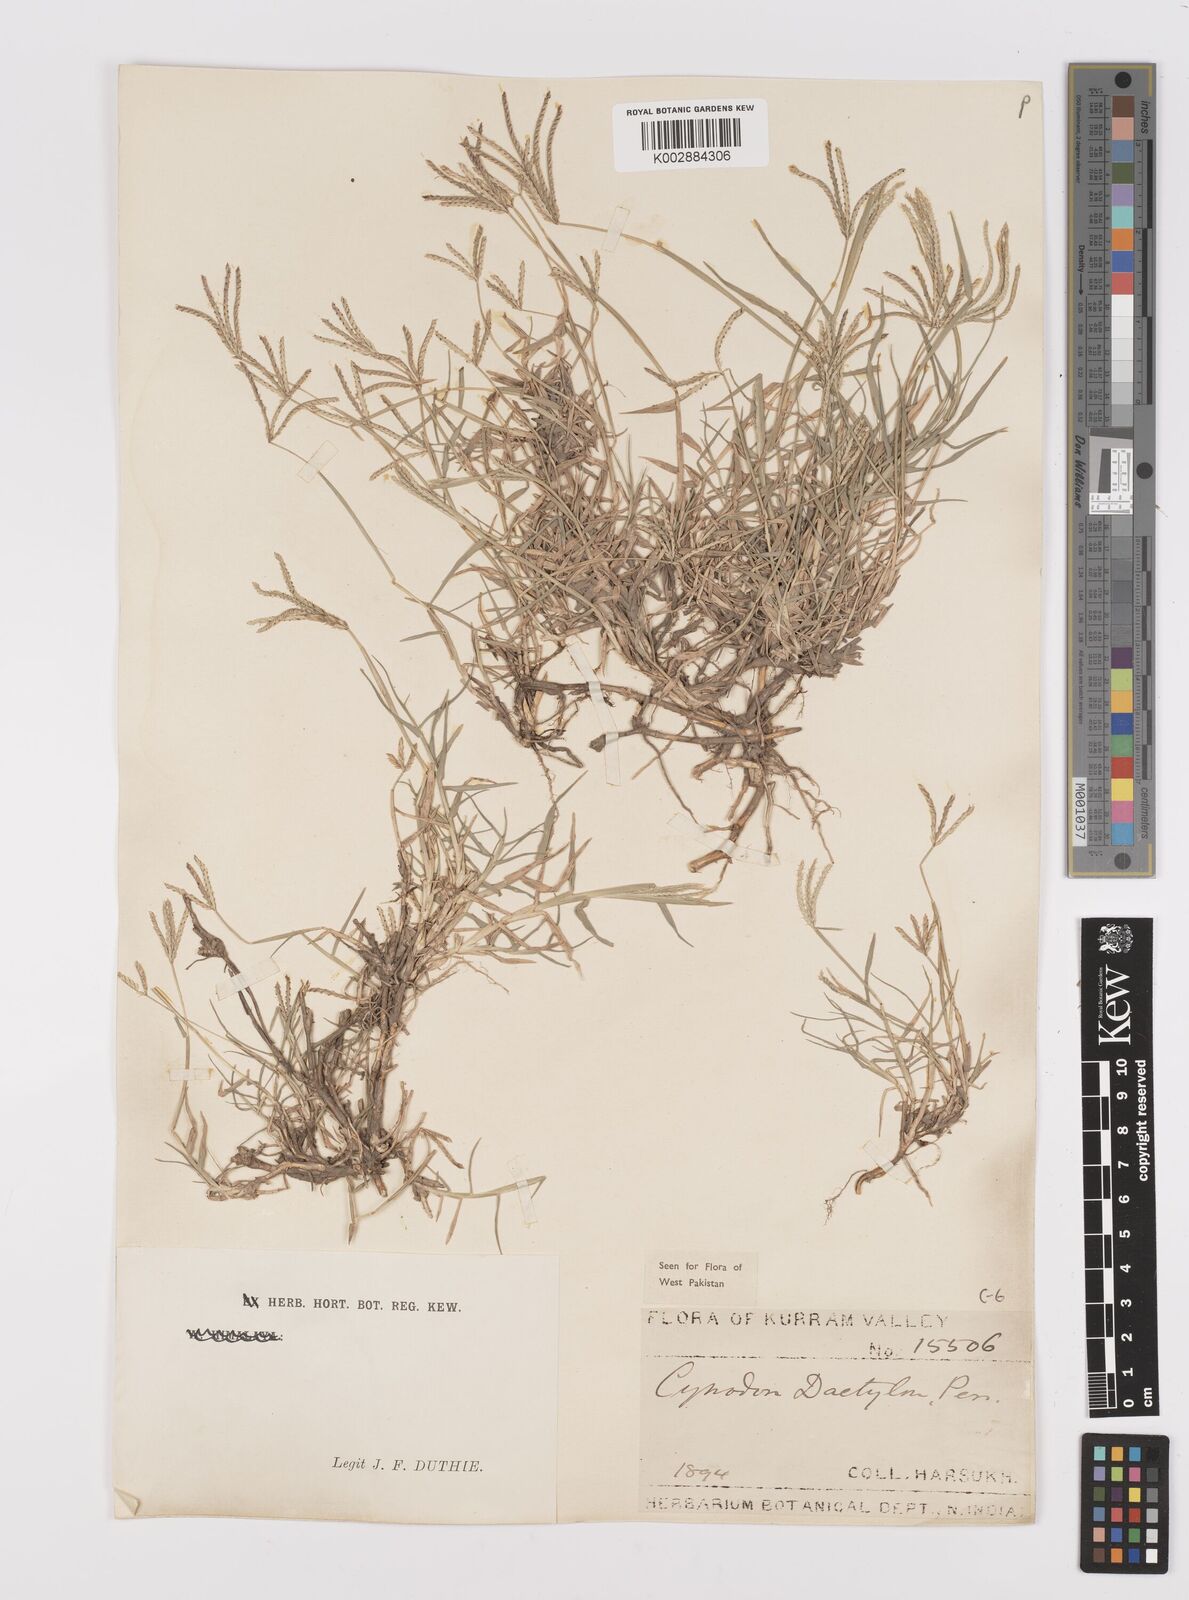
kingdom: Plantae
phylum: Tracheophyta
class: Liliopsida
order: Poales
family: Poaceae
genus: Cynodon
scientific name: Cynodon dactylon
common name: Bermuda grass
